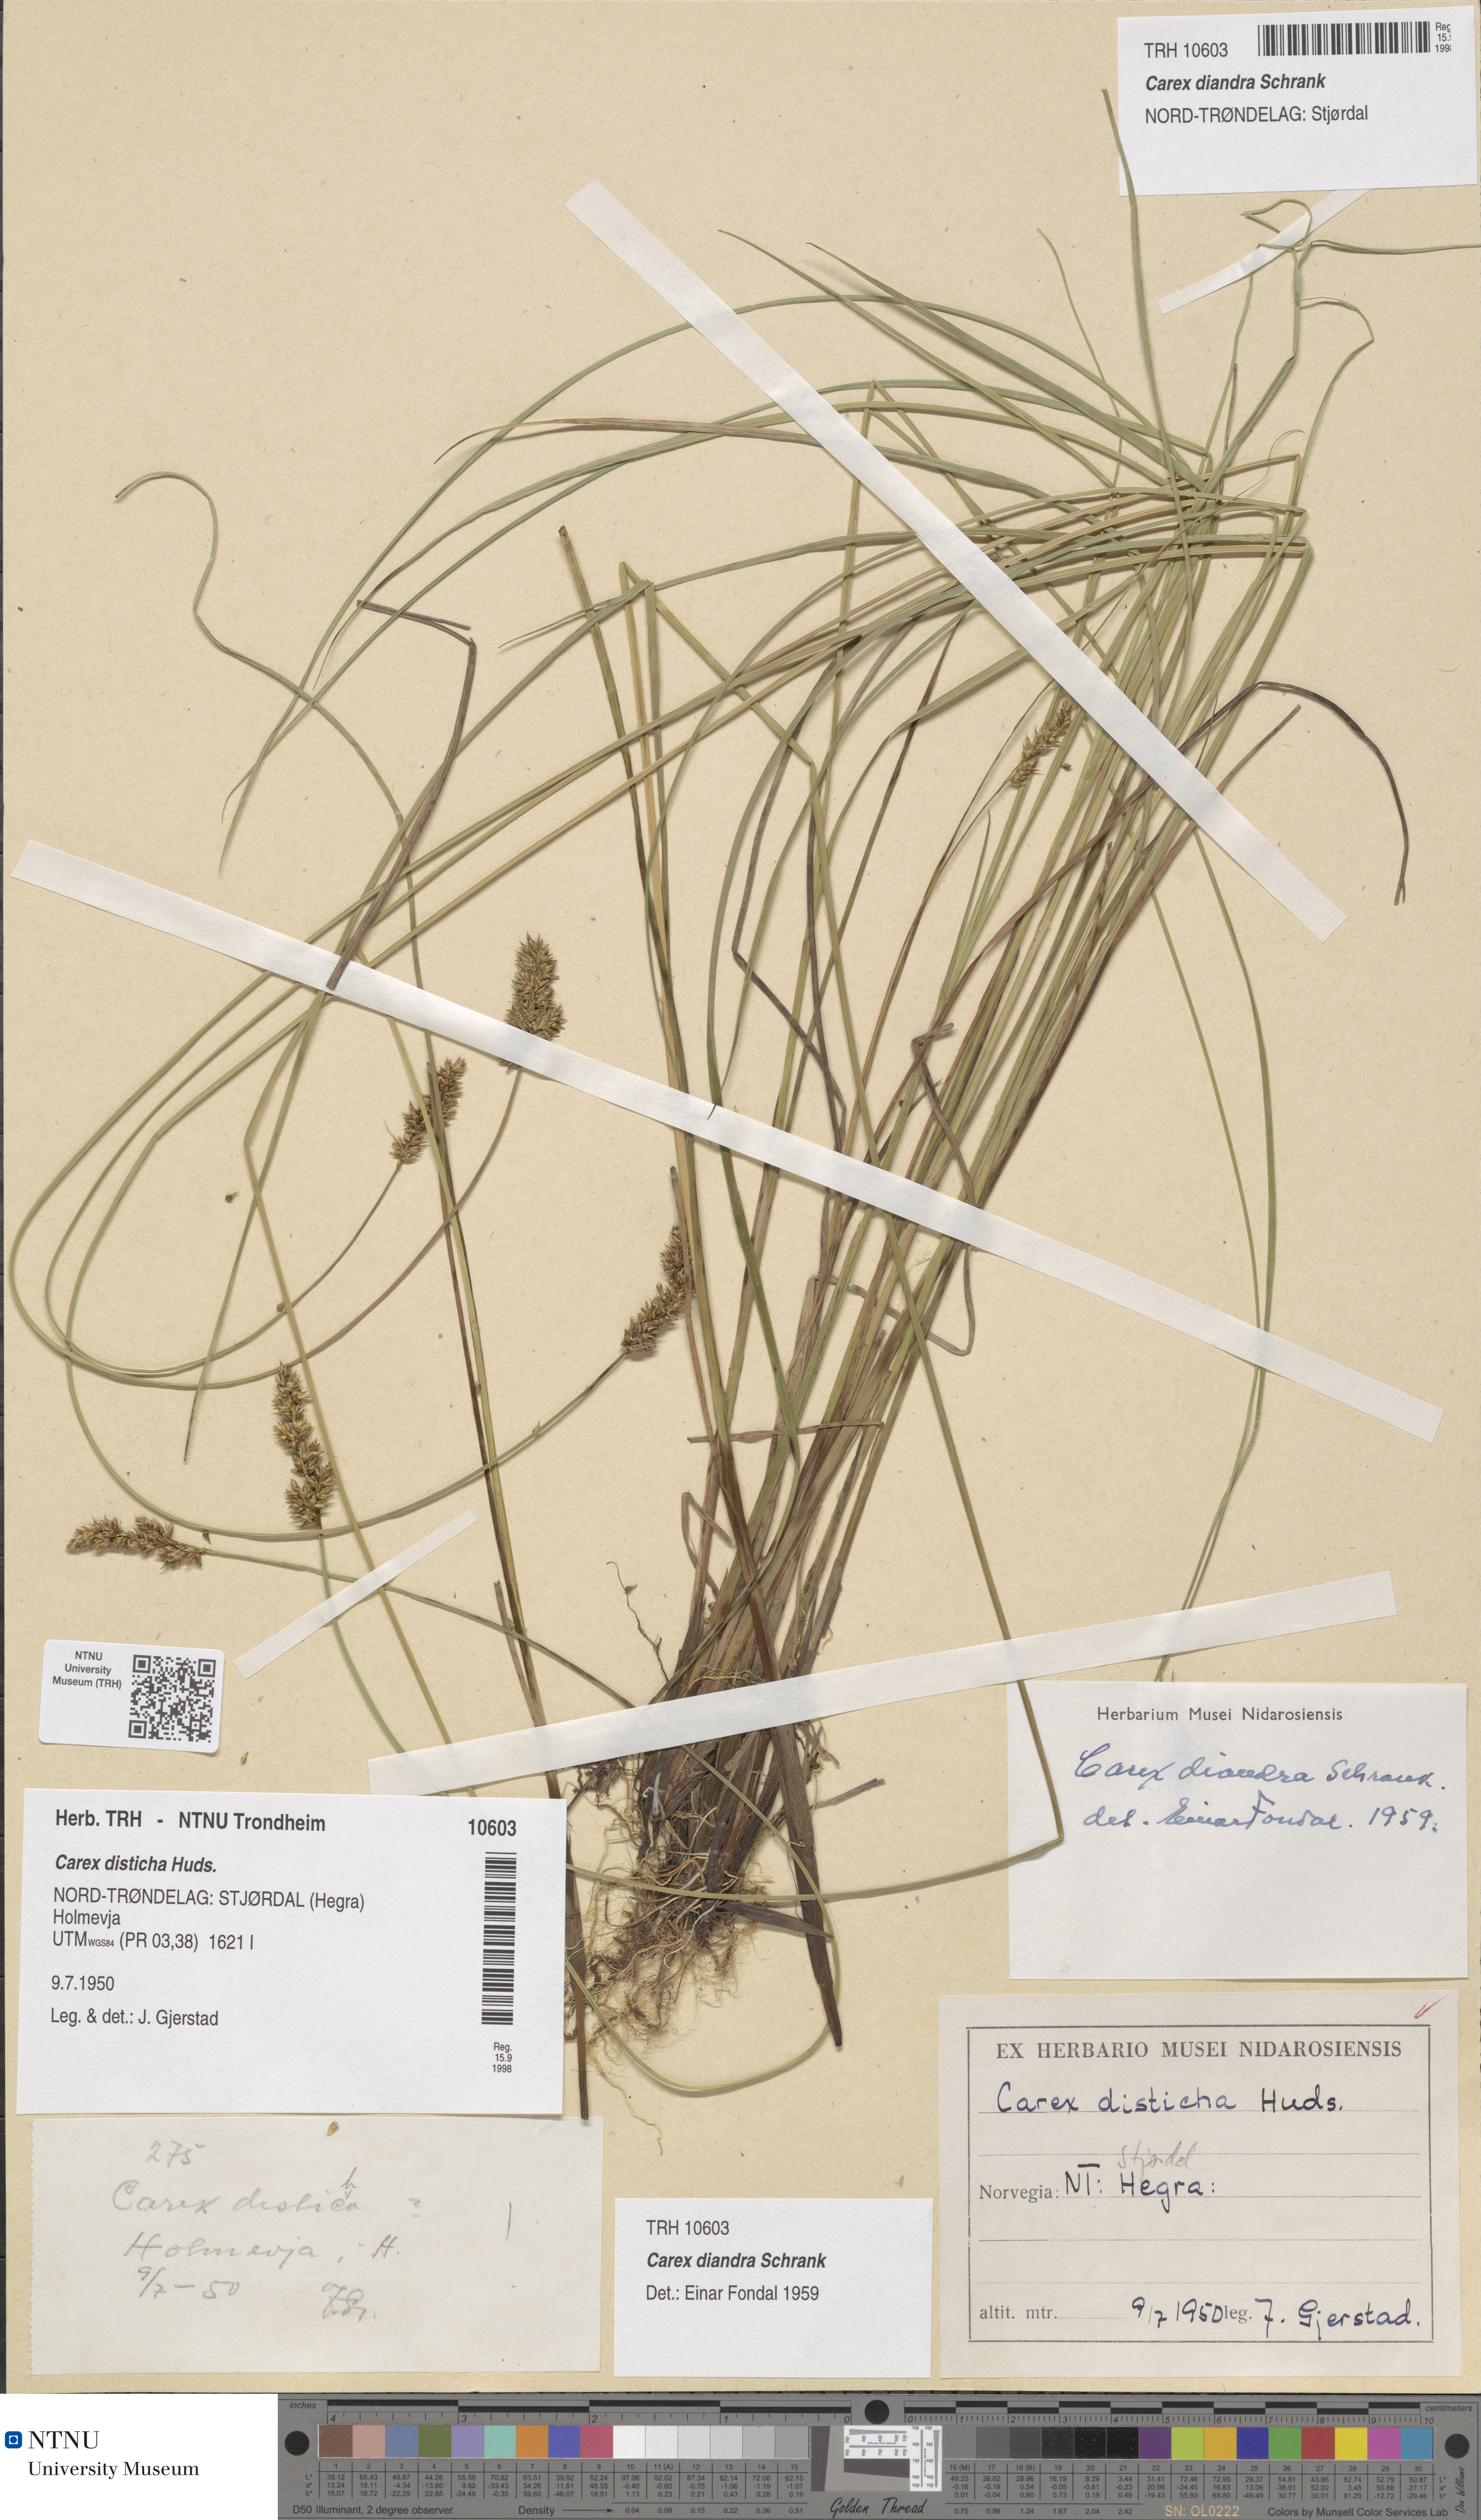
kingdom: Plantae
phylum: Tracheophyta
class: Liliopsida
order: Poales
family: Cyperaceae
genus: Carex
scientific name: Carex diandra
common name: Lesser tussock-sedge
